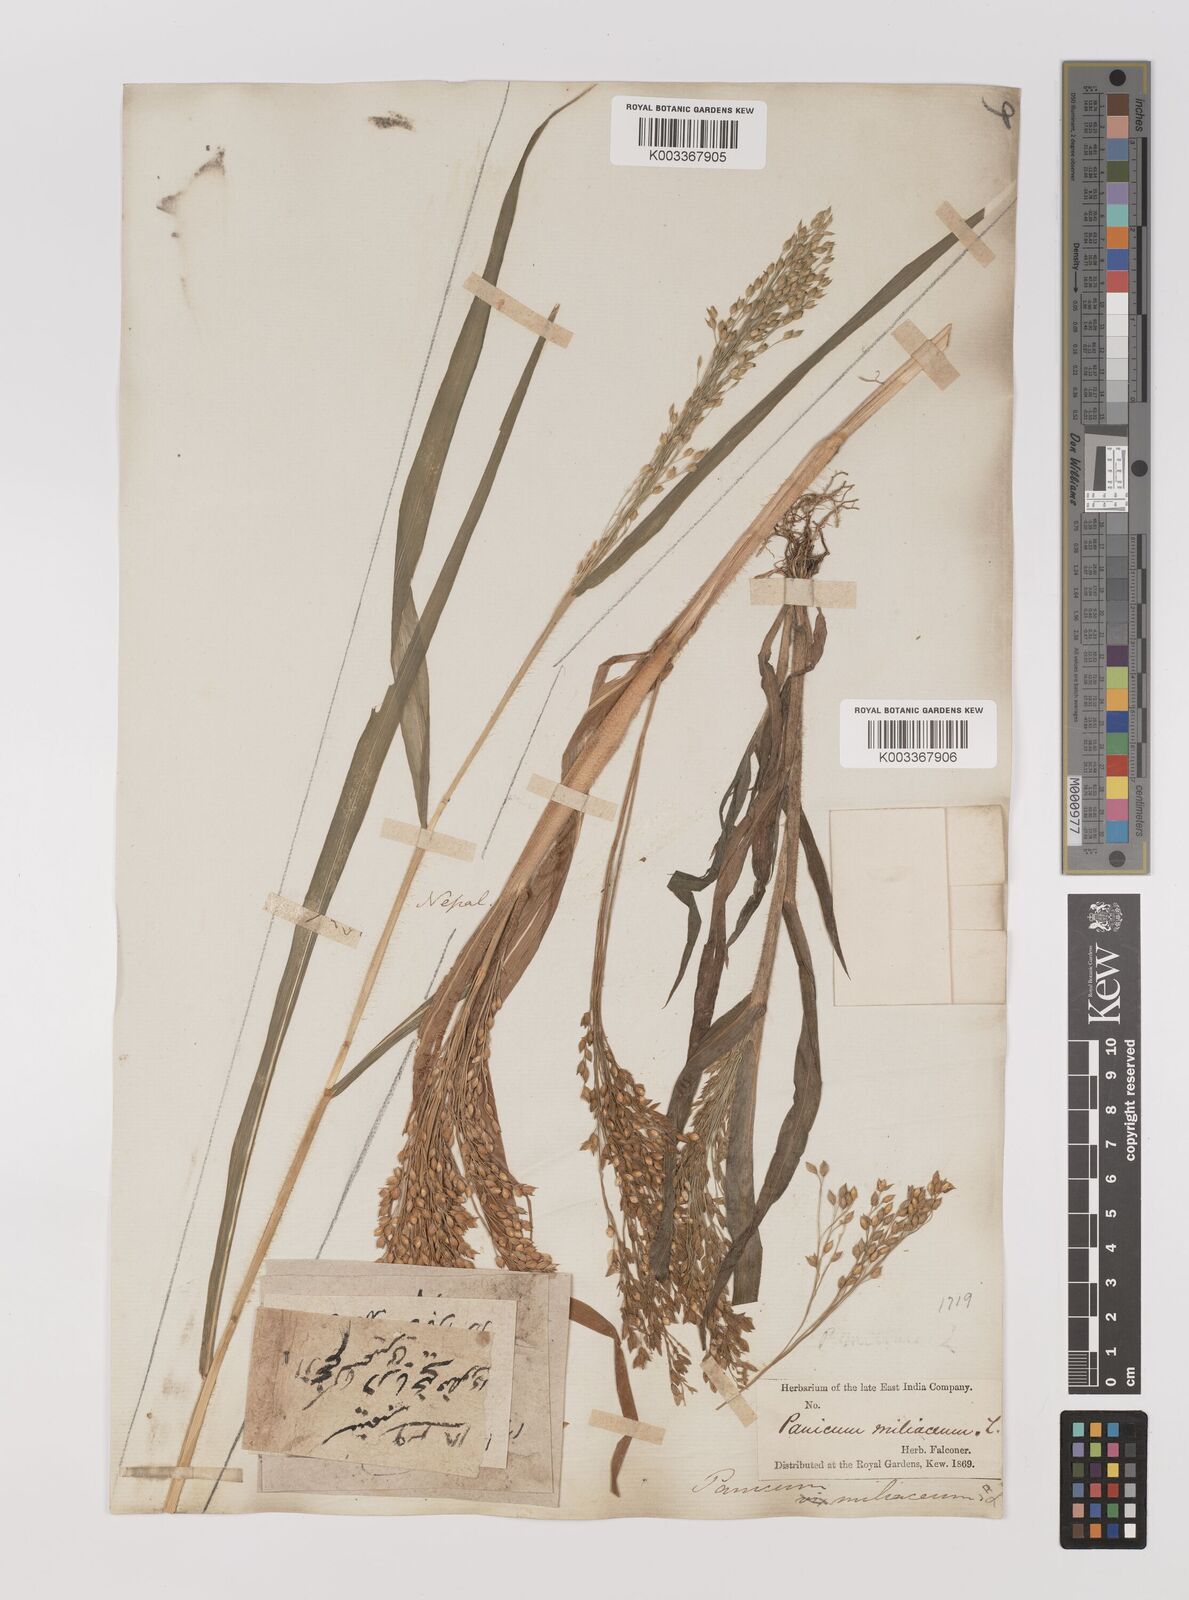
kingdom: Plantae
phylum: Tracheophyta
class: Liliopsida
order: Poales
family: Poaceae
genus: Panicum
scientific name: Panicum miliaceum
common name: Common millet
